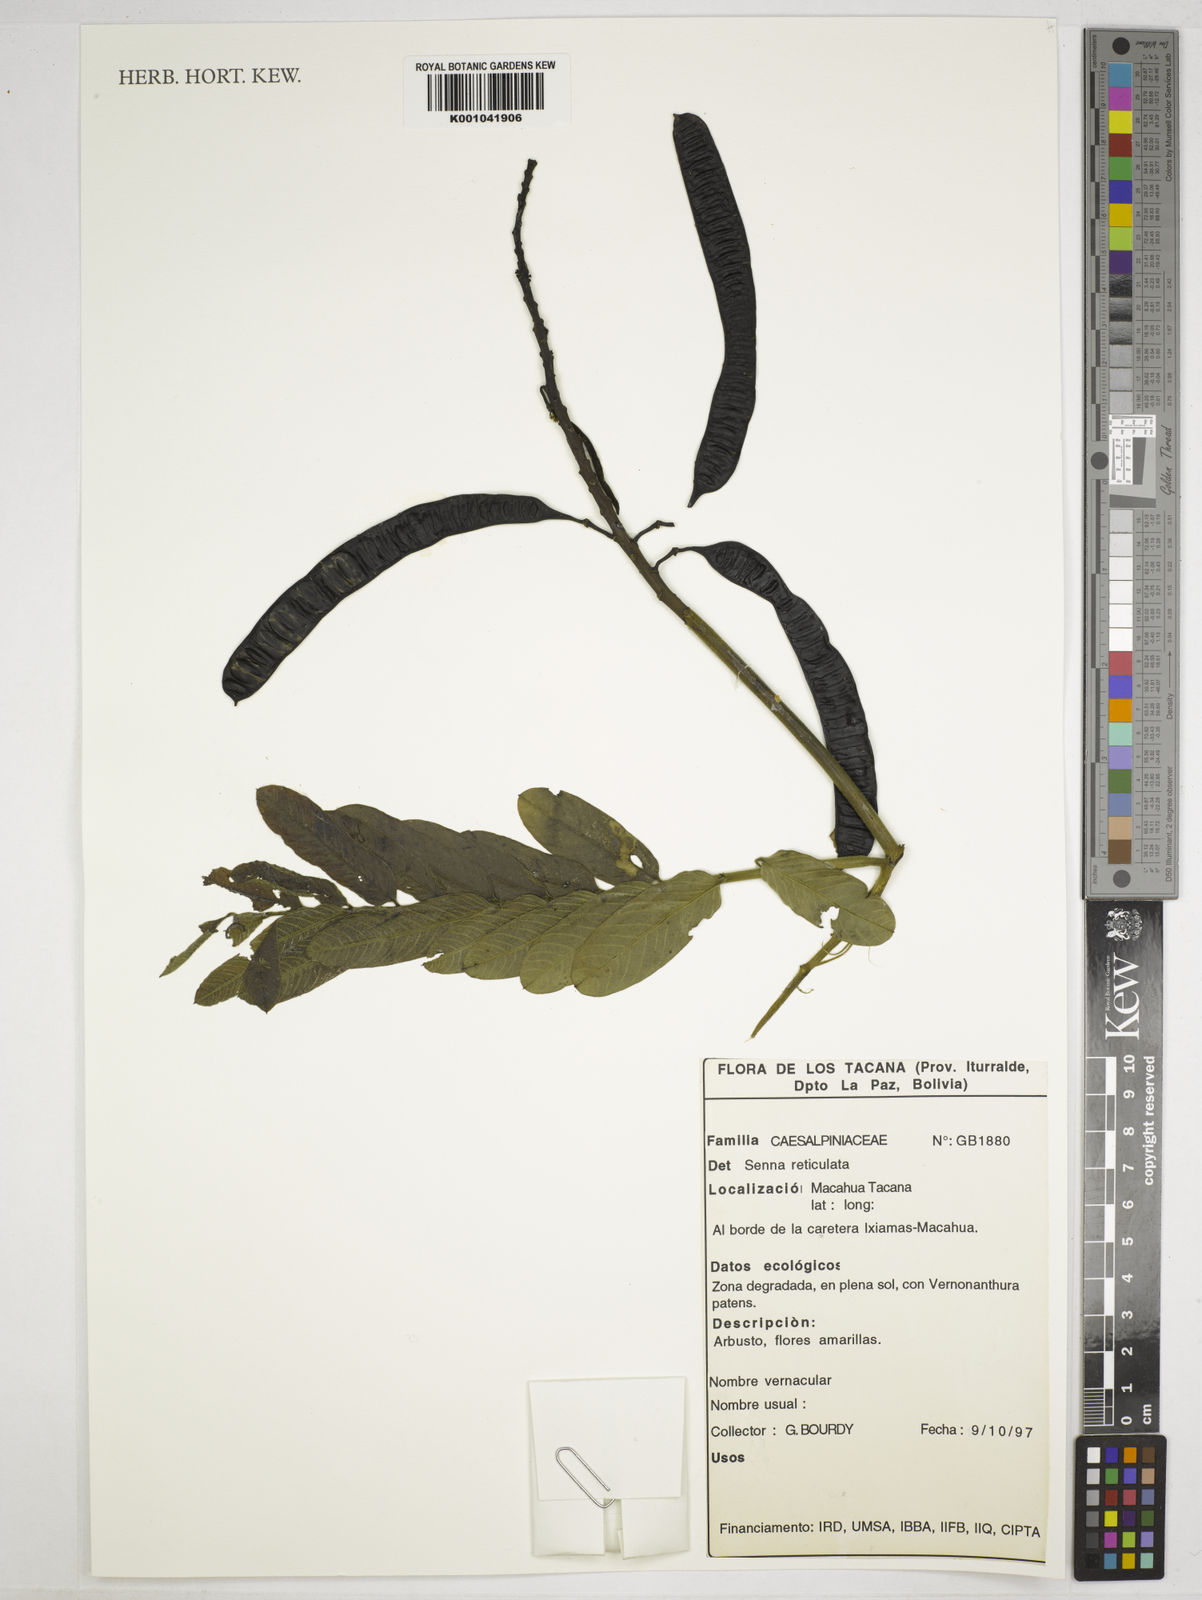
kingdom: Plantae
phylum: Tracheophyta
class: Magnoliopsida
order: Fabales
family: Fabaceae
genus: Senna
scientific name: Senna reticulata
